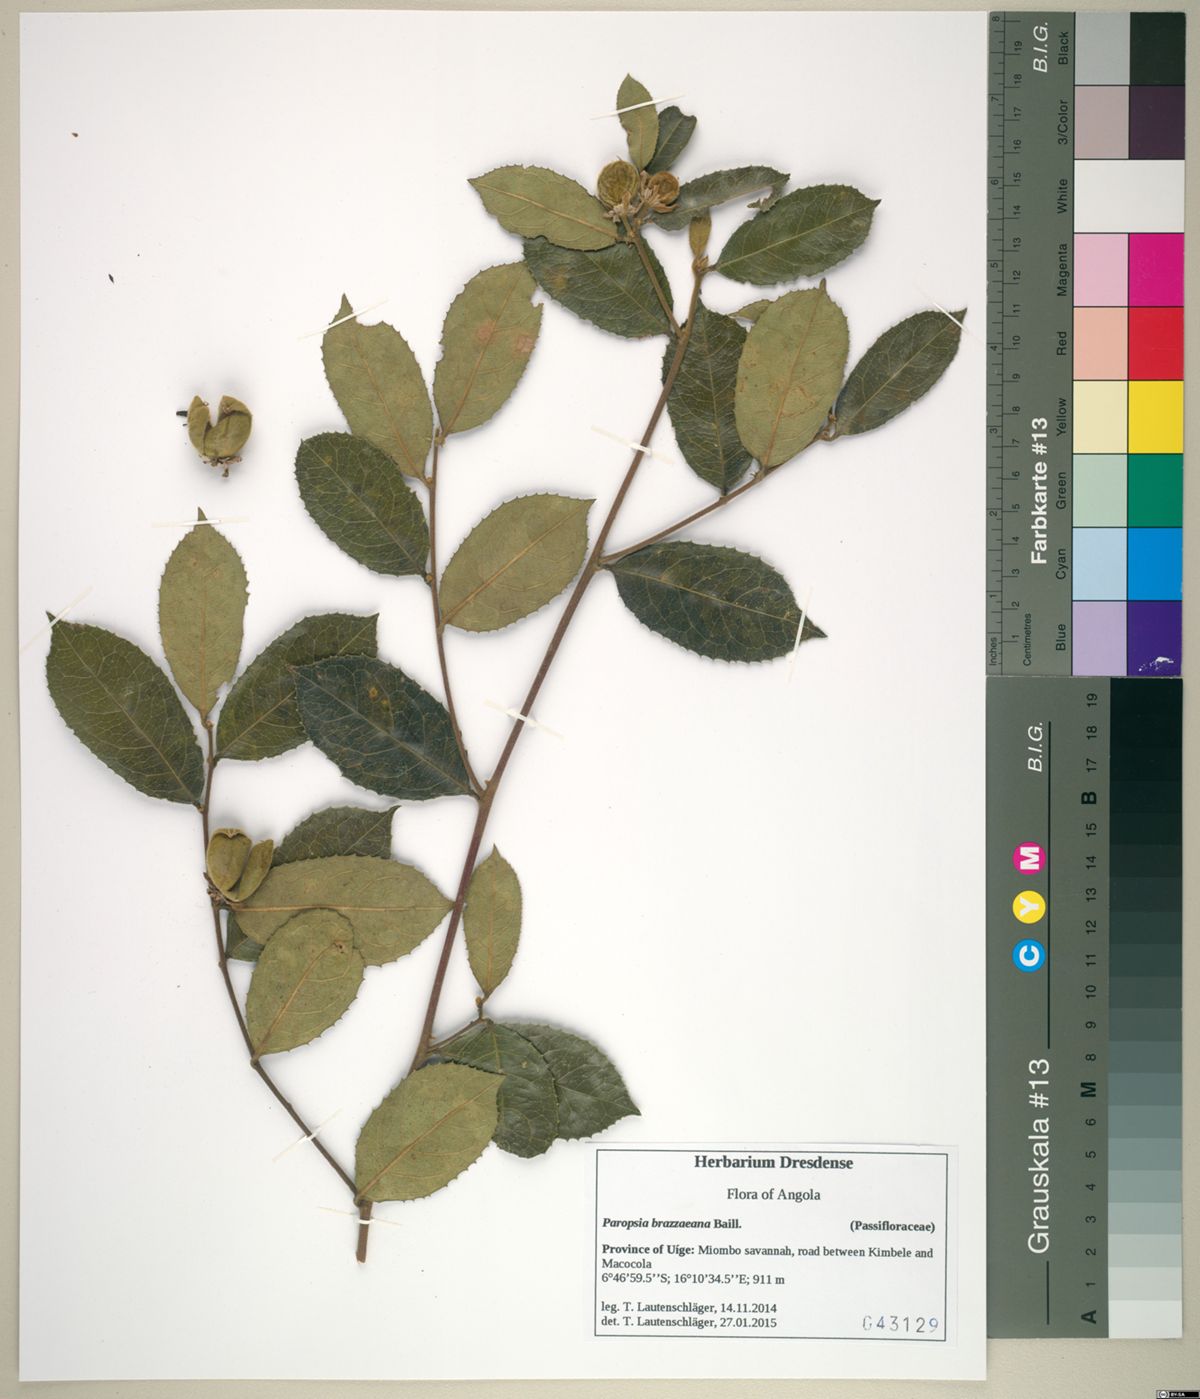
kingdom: Plantae
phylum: Tracheophyta
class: Magnoliopsida
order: Malpighiales
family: Passifloraceae
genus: Paropsia
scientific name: Paropsia brazzaeana
